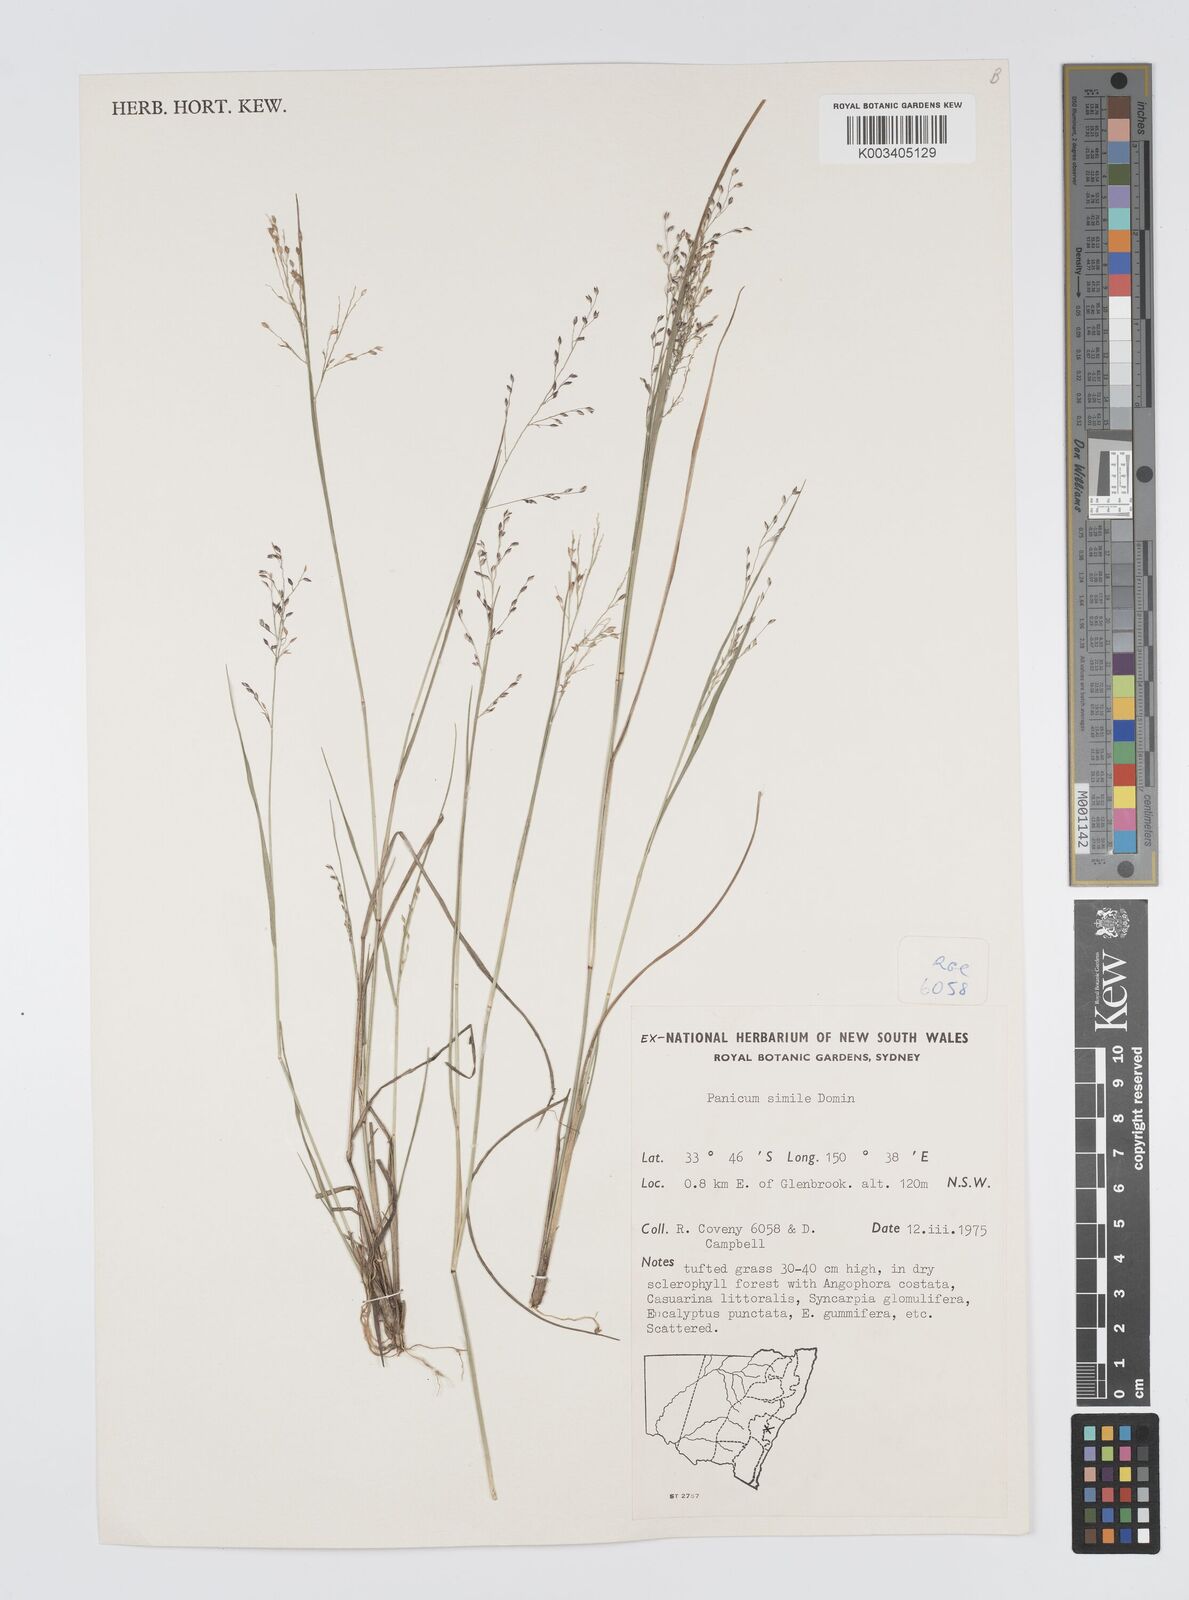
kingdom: Plantae
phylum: Tracheophyta
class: Liliopsida
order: Poales
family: Poaceae
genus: Panicum
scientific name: Panicum simile
